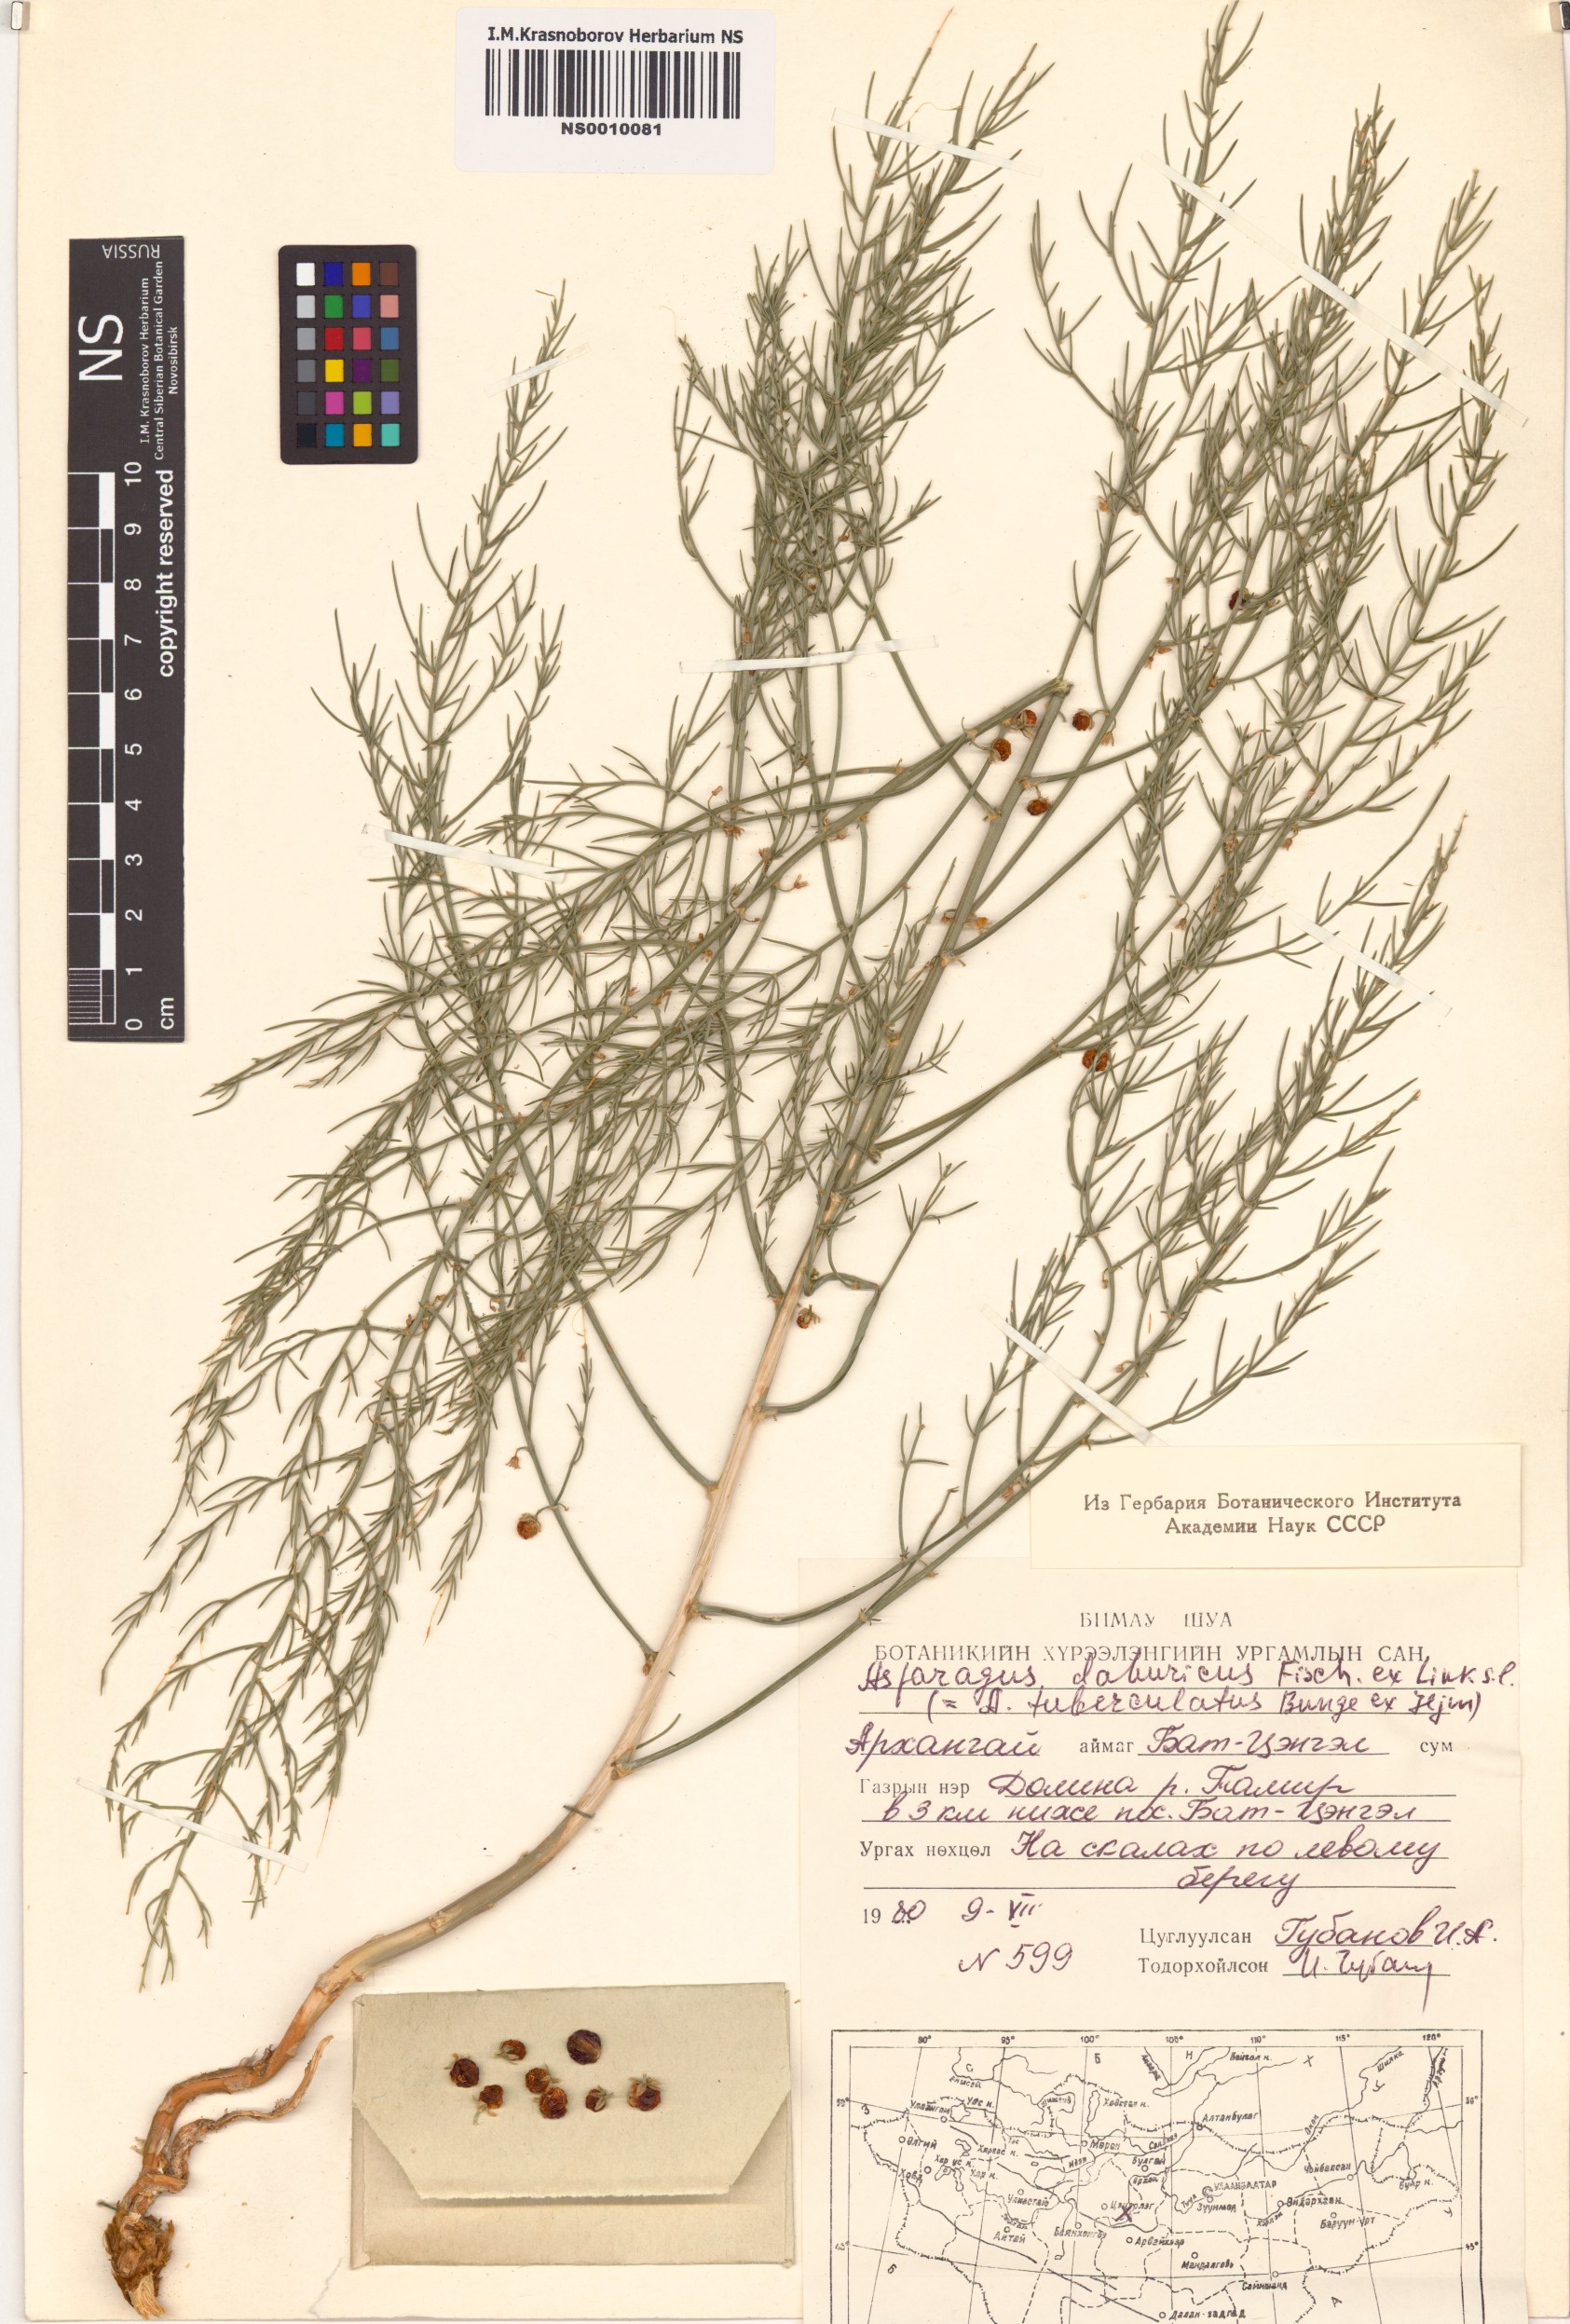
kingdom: Plantae
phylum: Tracheophyta
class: Liliopsida
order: Asparagales
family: Asparagaceae
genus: Asparagus
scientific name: Asparagus dauricus
